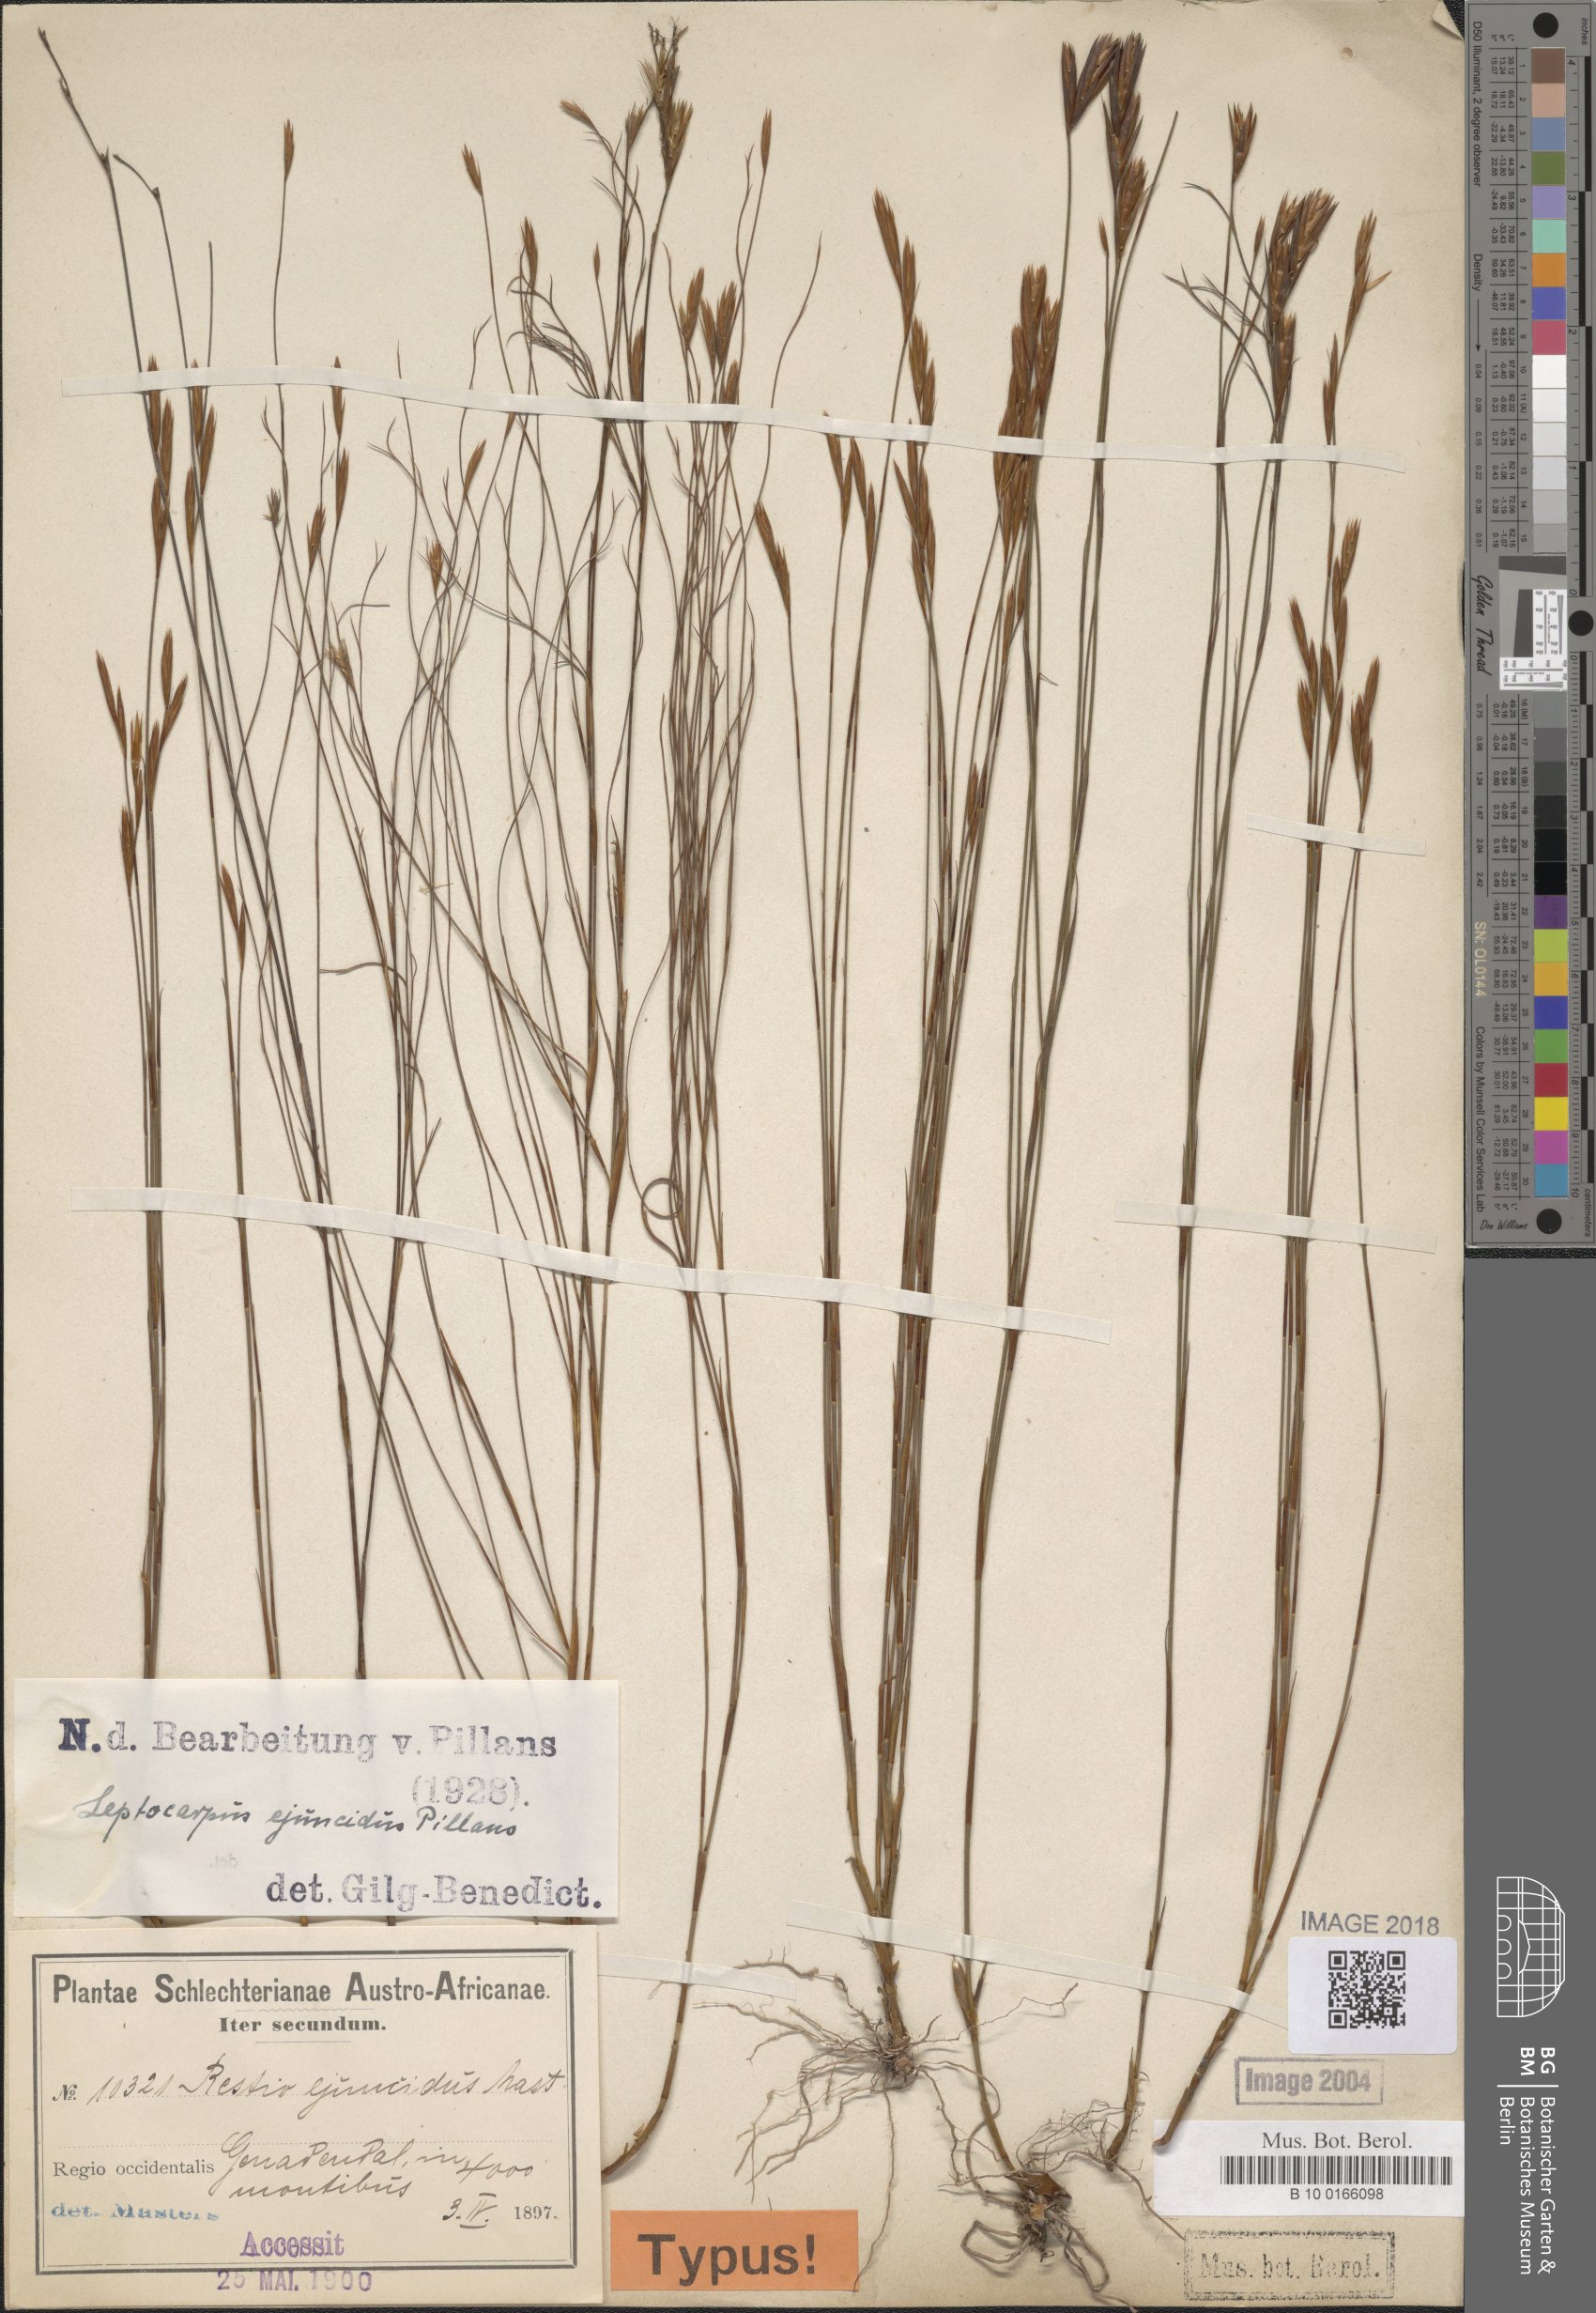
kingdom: Plantae
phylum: Tracheophyta
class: Liliopsida
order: Poales
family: Restionaceae
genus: Restio
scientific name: Restio ejuncidus
